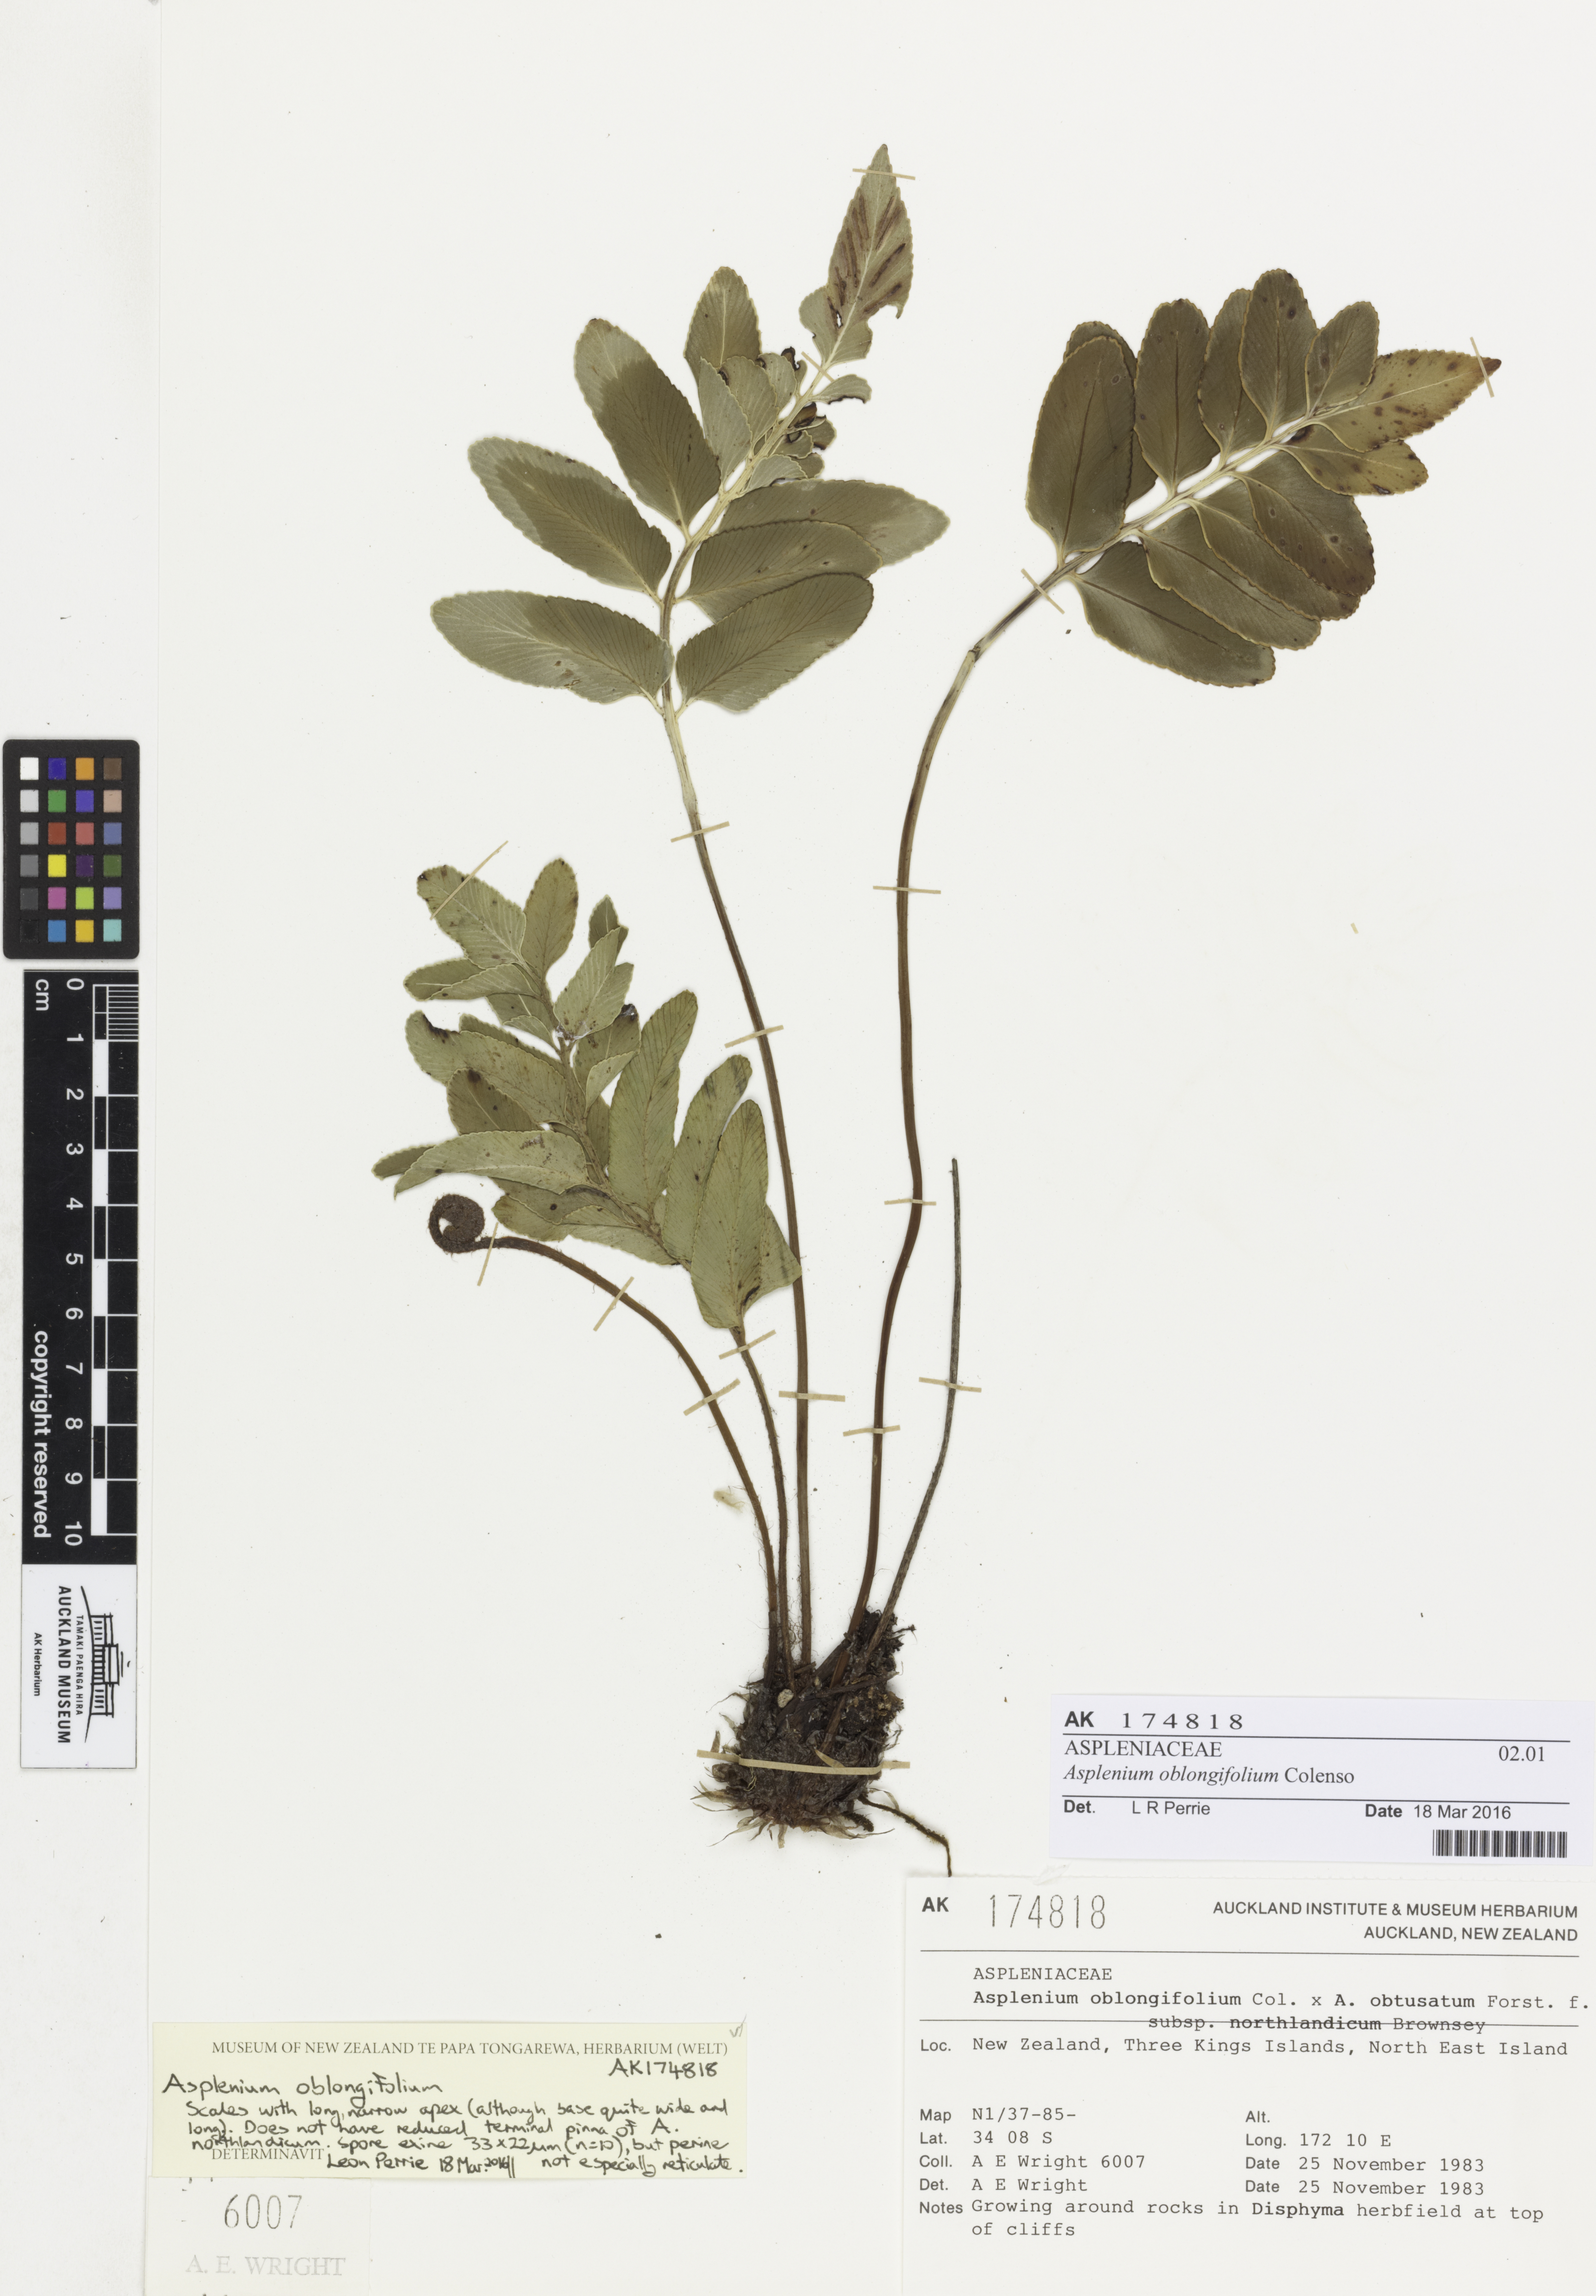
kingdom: Plantae
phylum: Tracheophyta
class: Polypodiopsida
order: Polypodiales
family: Aspleniaceae
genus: Asplenium
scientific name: Asplenium oblongifolium
